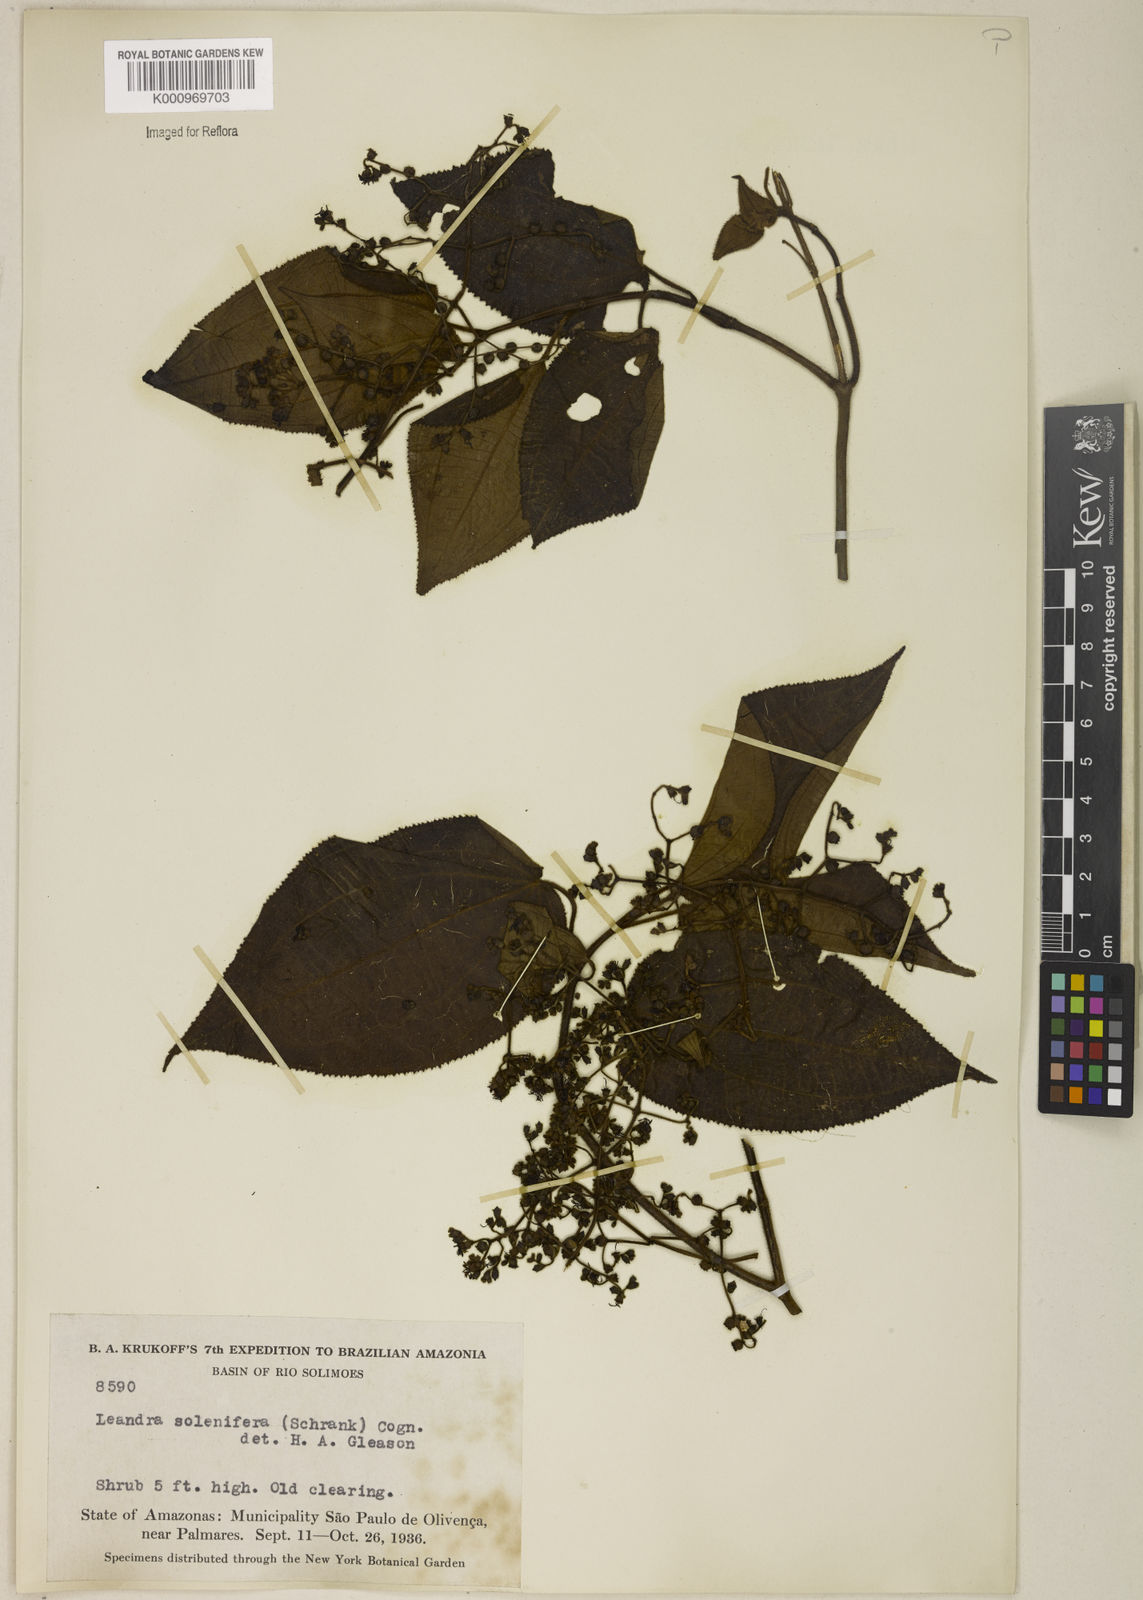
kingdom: Plantae
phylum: Tracheophyta
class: Magnoliopsida
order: Myrtales
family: Melastomataceae
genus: Miconia
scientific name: Miconia solenifera
